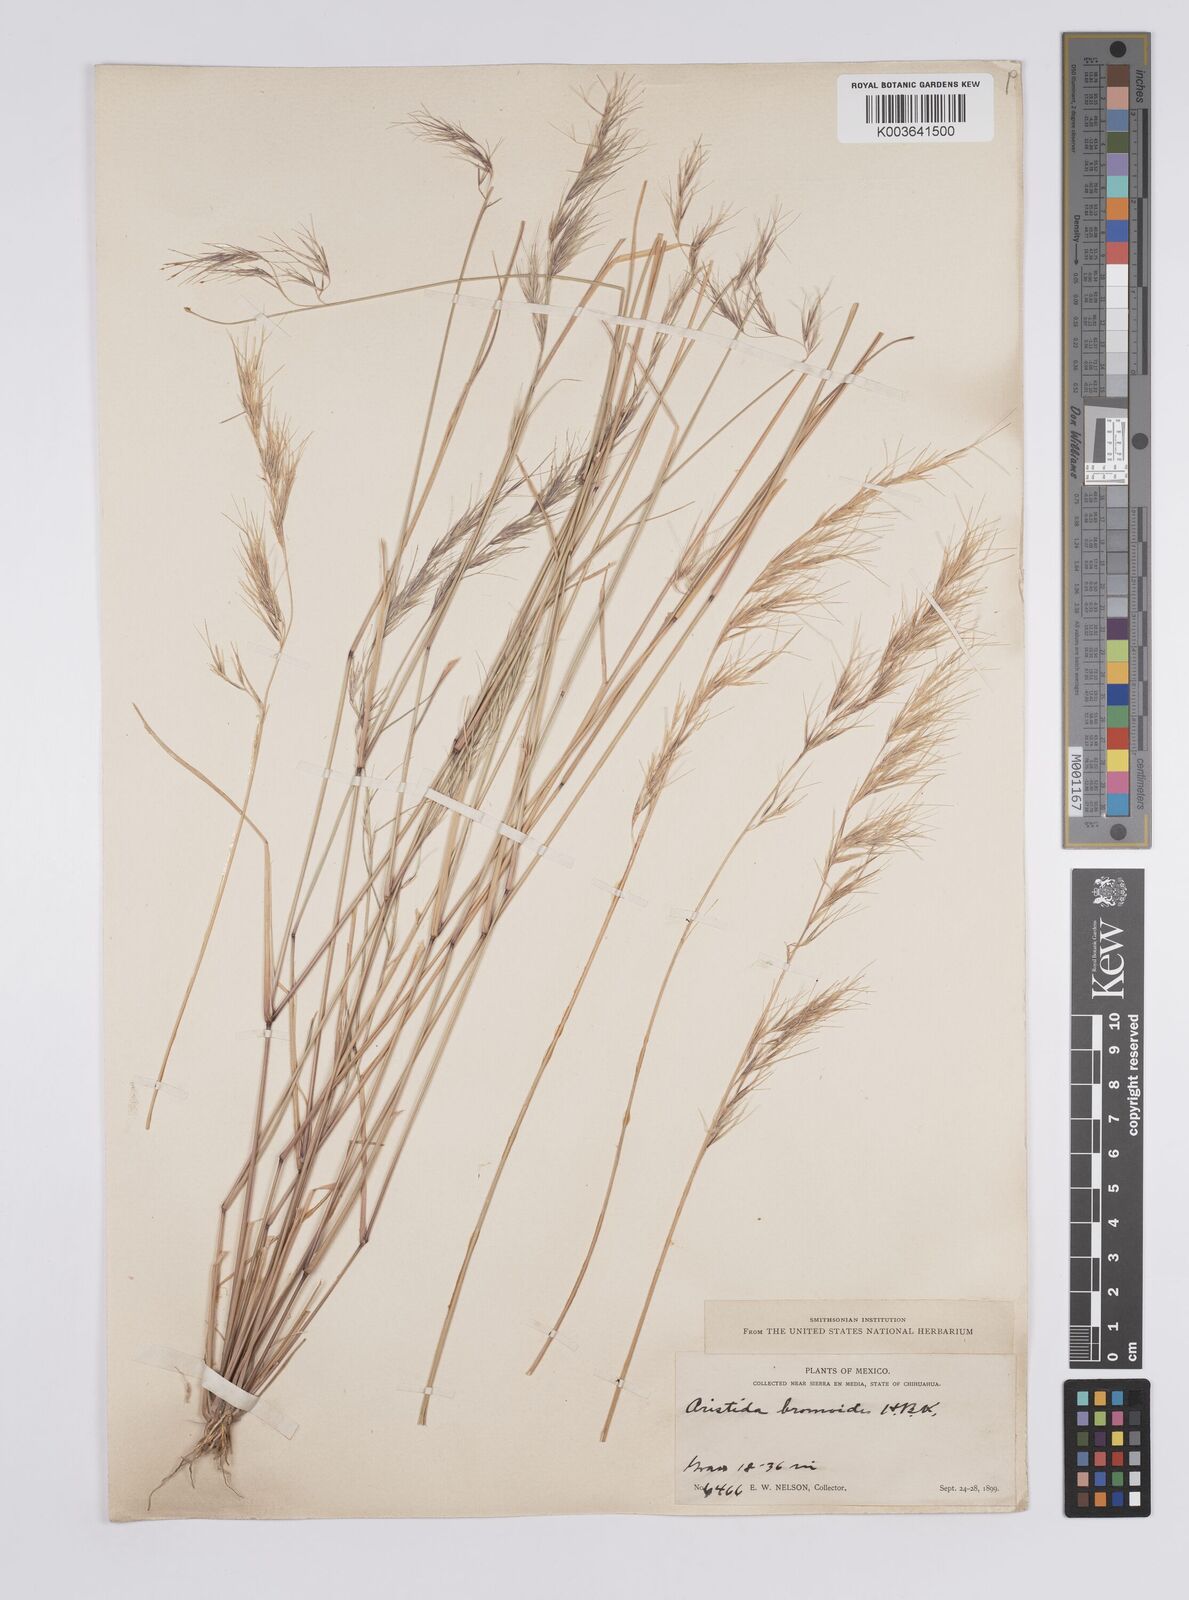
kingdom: Plantae
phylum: Tracheophyta
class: Liliopsida
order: Poales
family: Poaceae
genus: Aristida
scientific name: Aristida adscensionis
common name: Sixweeks threeawn
